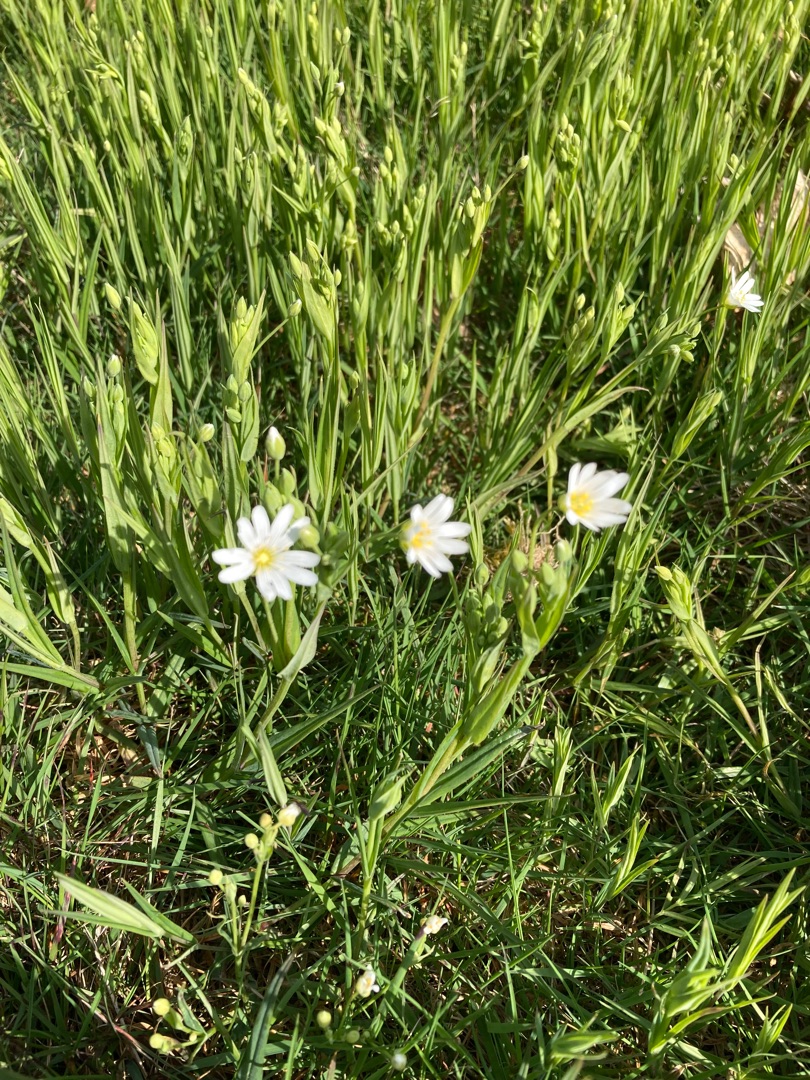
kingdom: Plantae
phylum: Tracheophyta
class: Magnoliopsida
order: Caryophyllales
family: Caryophyllaceae
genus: Rabelera
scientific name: Rabelera holostea
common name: Stor fladstjerne
